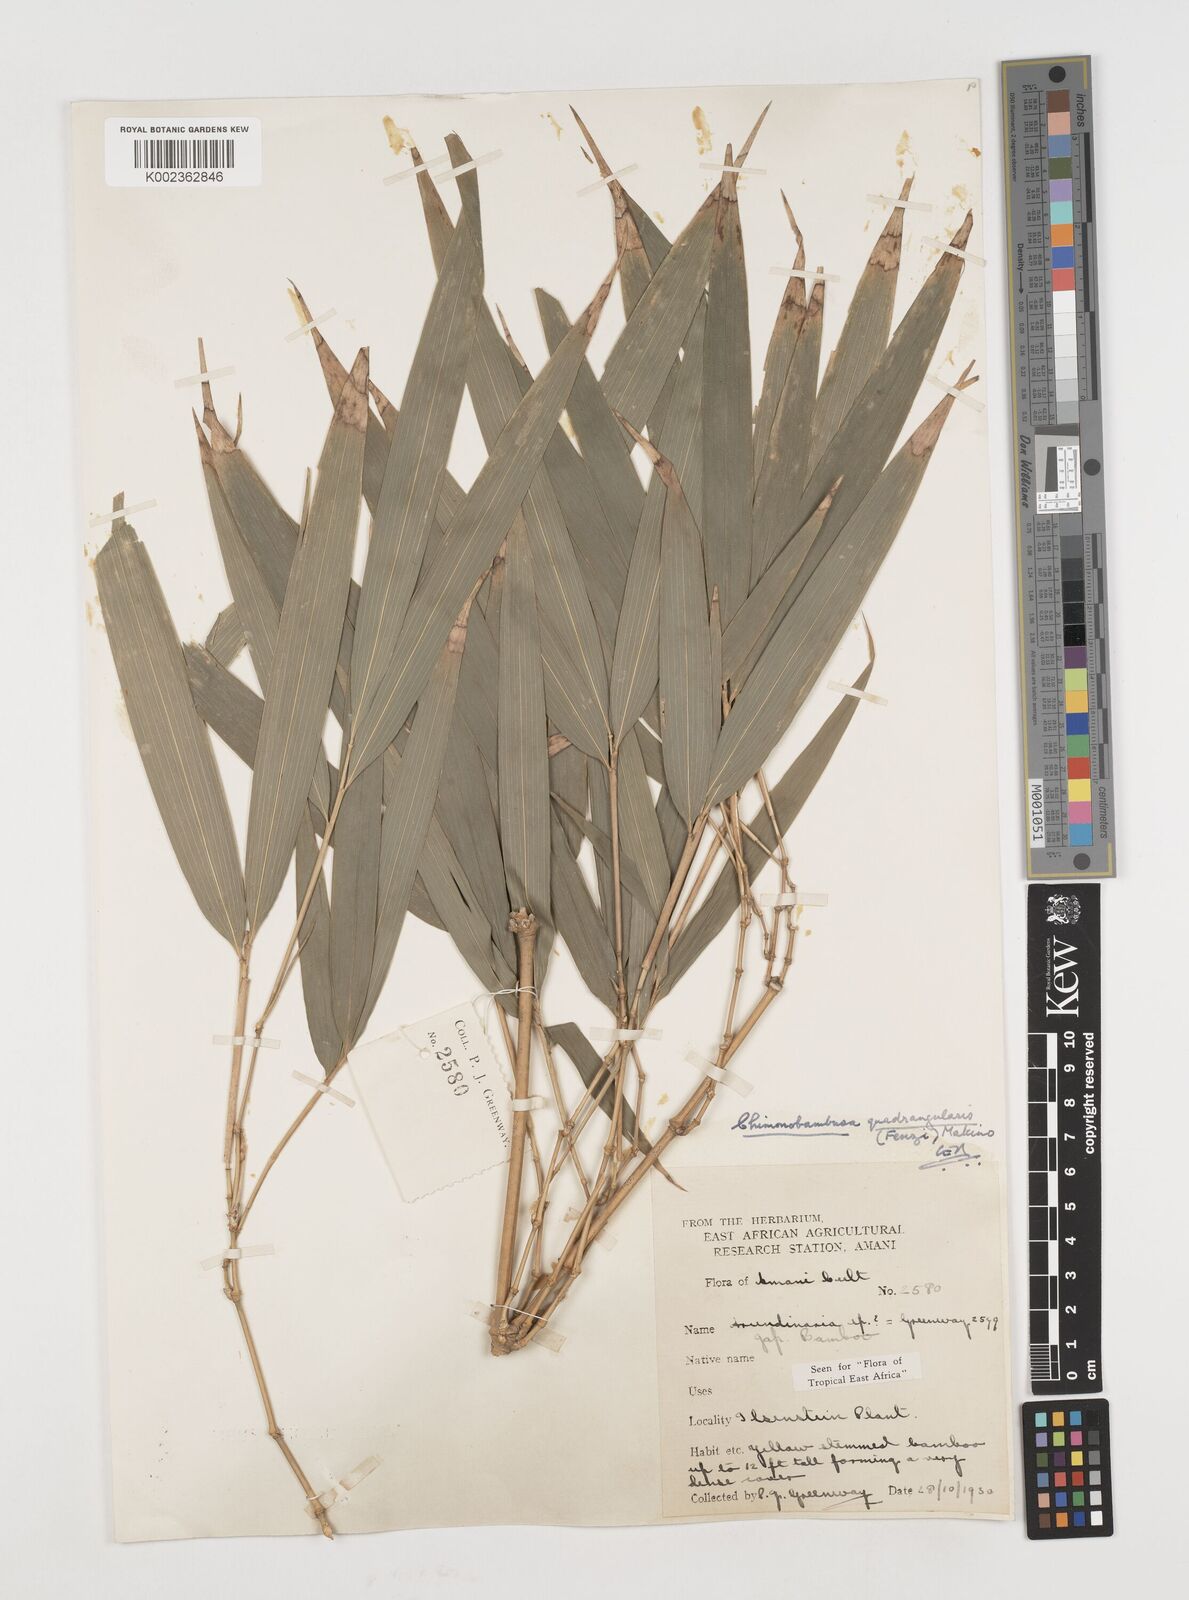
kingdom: Plantae
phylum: Tracheophyta
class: Liliopsida
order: Poales
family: Poaceae
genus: Chimonobambusa
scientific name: Chimonobambusa quadrangularis
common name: Square-stemmed bamboo
